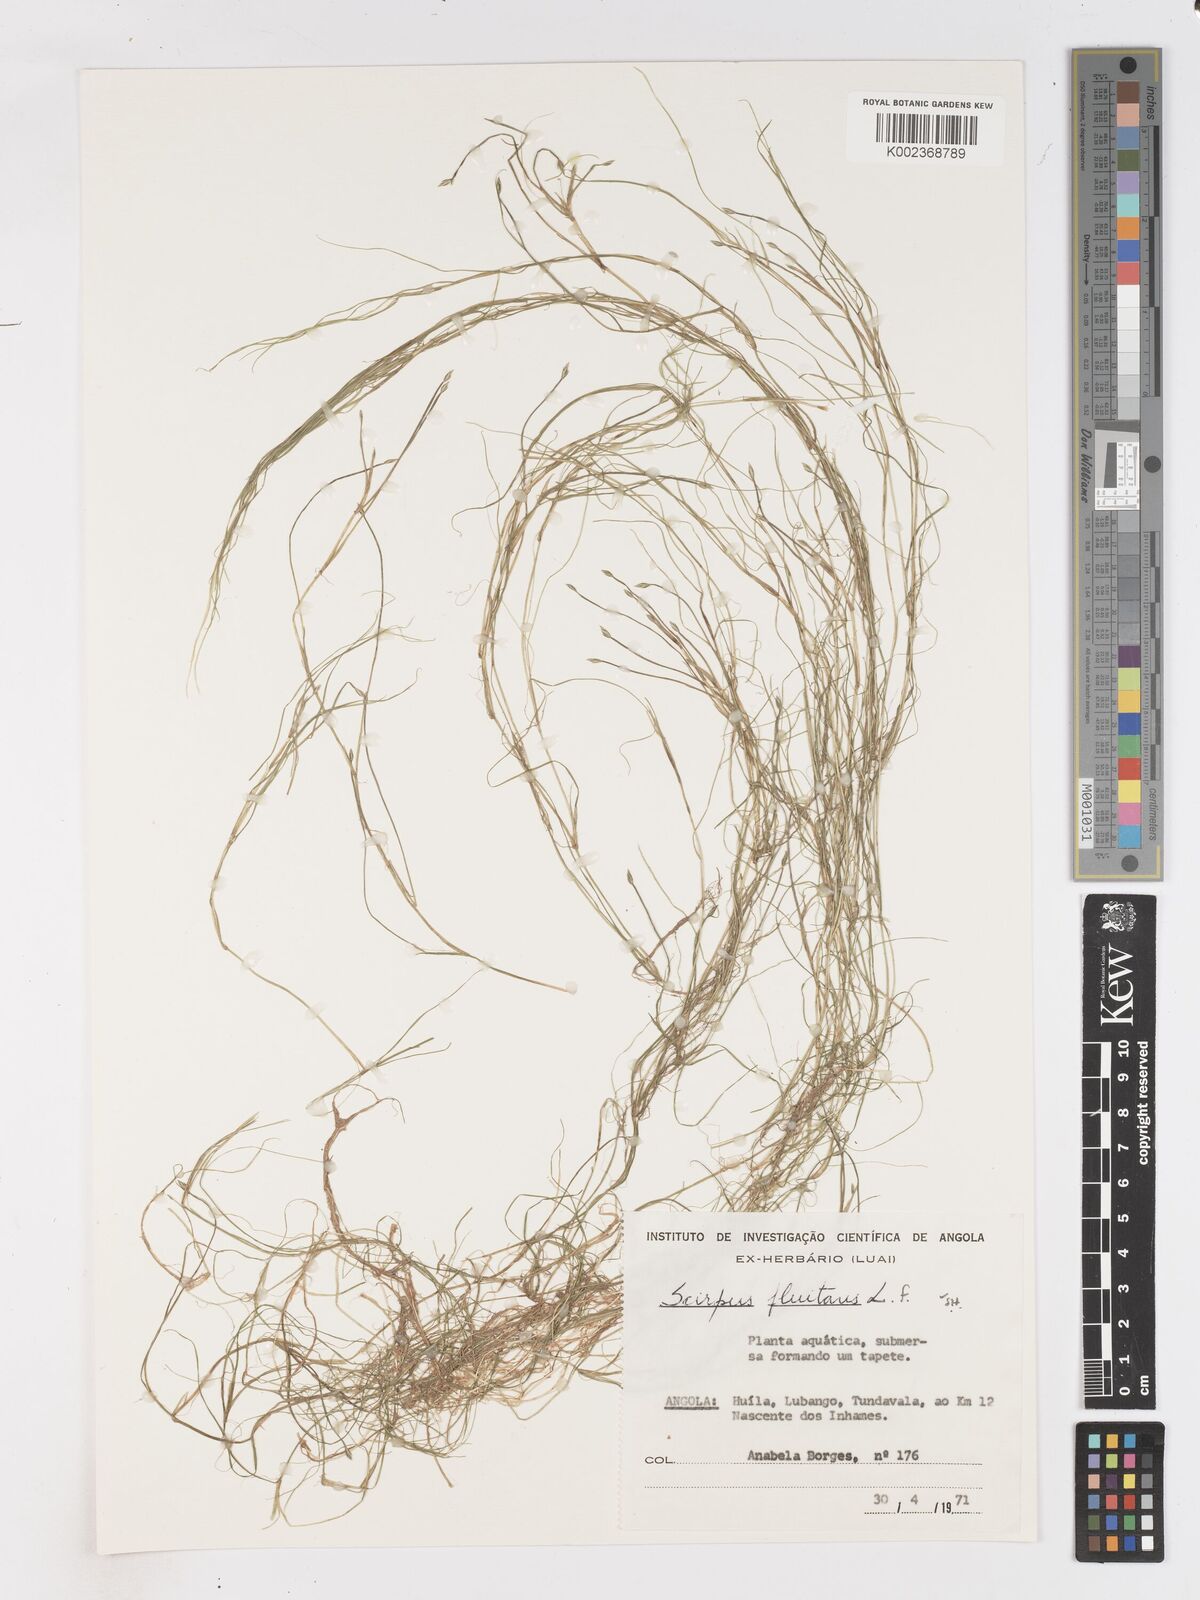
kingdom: Plantae
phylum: Tracheophyta
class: Liliopsida
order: Poales
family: Cyperaceae
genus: Isolepis
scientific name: Isolepis fluitans
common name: Floating club-rush
